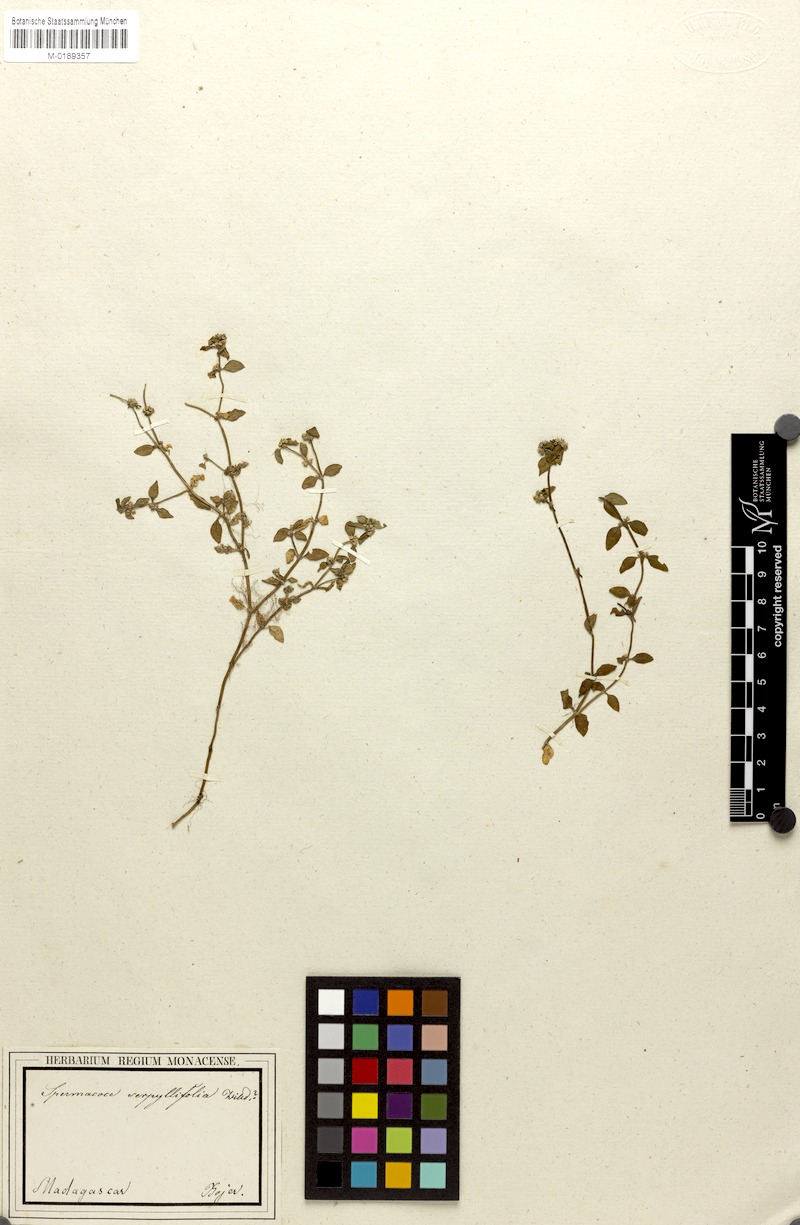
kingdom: Plantae
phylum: Tracheophyta
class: Magnoliopsida
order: Gentianales
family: Rubiaceae
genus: Spermacoce
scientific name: Spermacoce serpyllifolia
